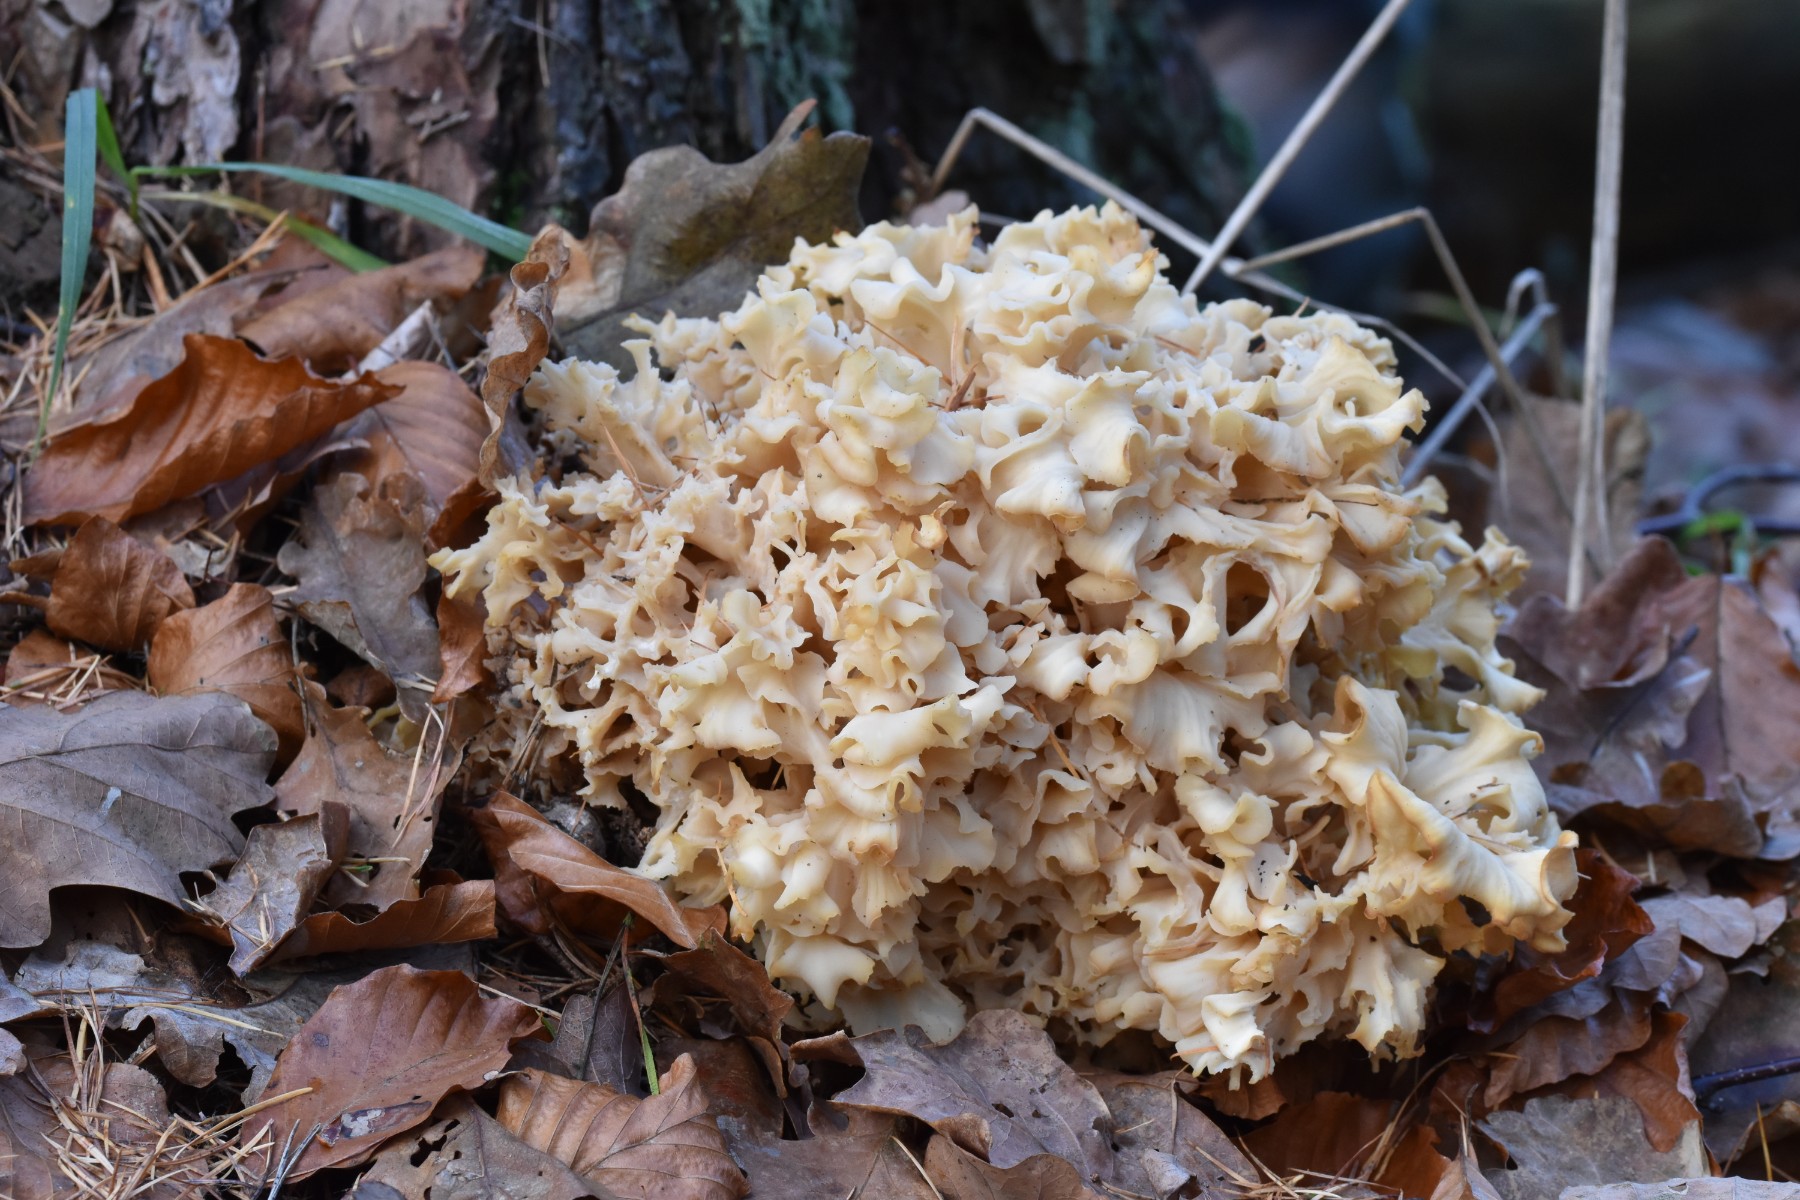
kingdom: Fungi
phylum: Basidiomycota
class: Agaricomycetes
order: Polyporales
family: Sparassidaceae
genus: Sparassis
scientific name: Sparassis crispa
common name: kruset blomkålssvamp
